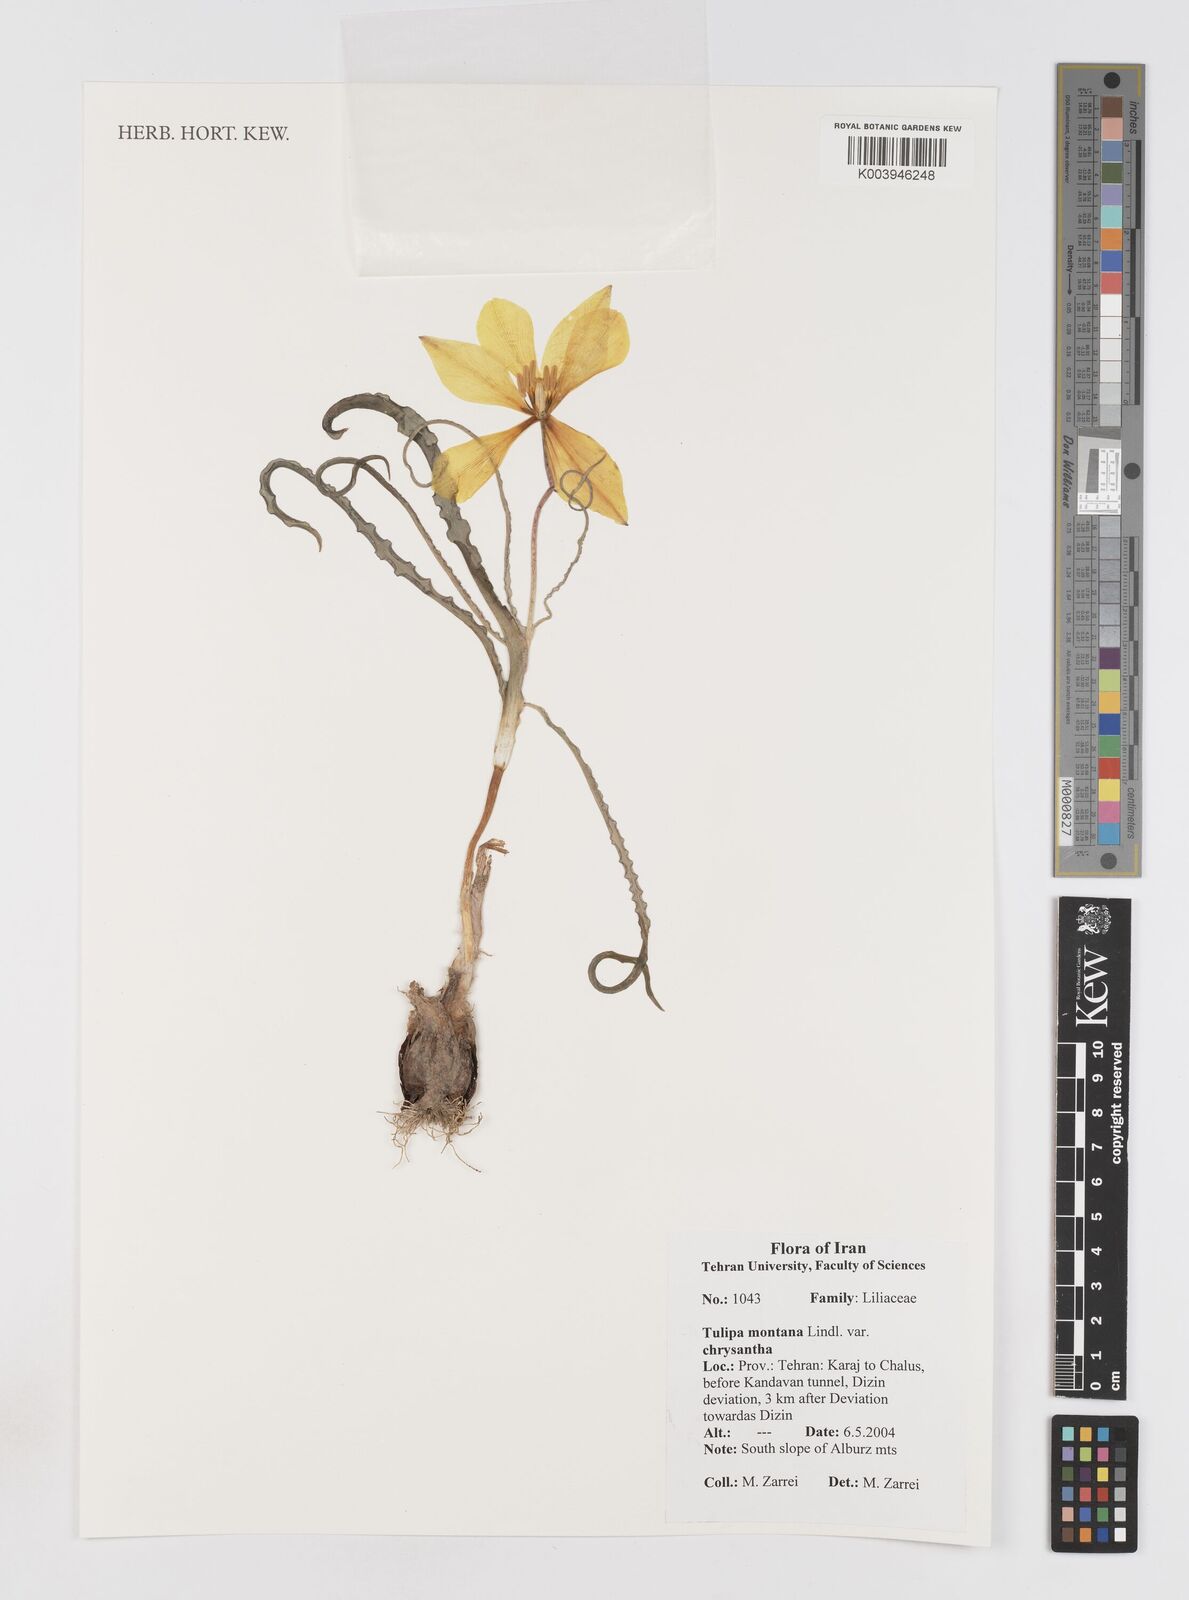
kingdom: Plantae
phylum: Tracheophyta
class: Liliopsida
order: Liliales
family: Liliaceae
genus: Tulipa
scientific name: Tulipa montana
